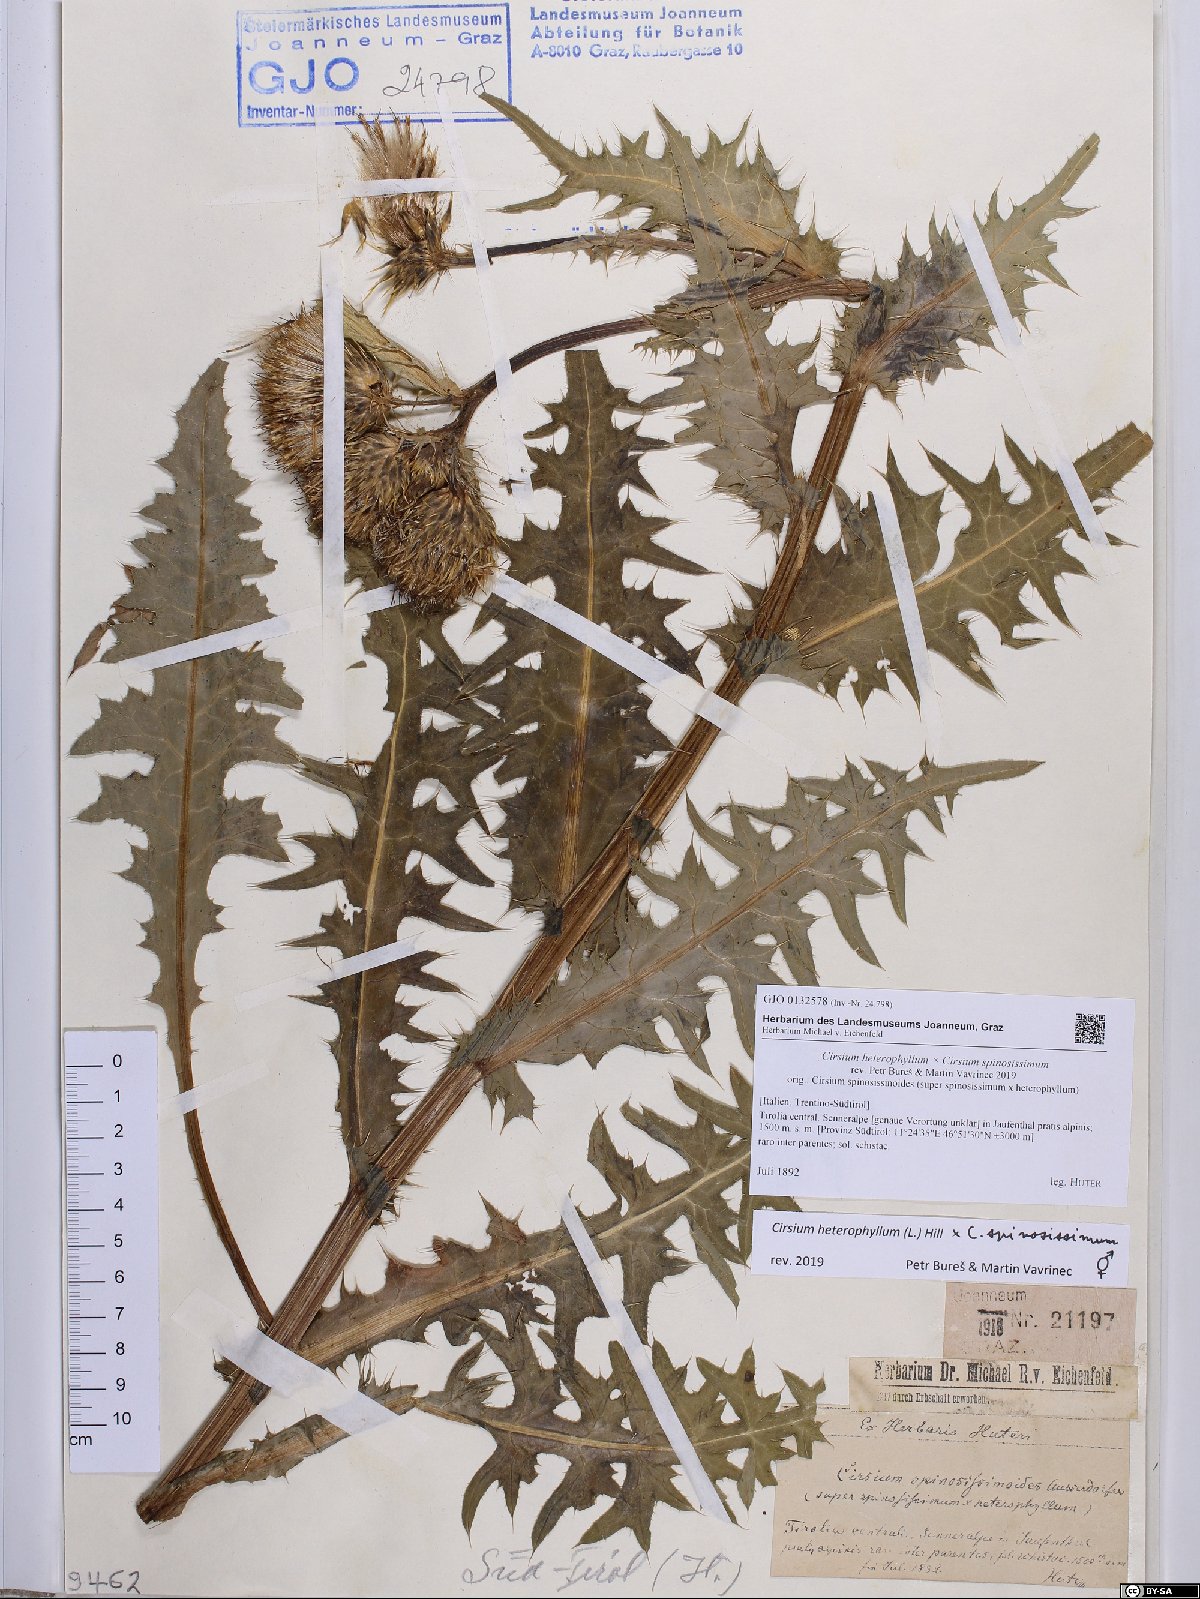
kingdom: Plantae
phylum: Tracheophyta
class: Magnoliopsida
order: Asterales
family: Asteraceae
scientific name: Asteraceae
